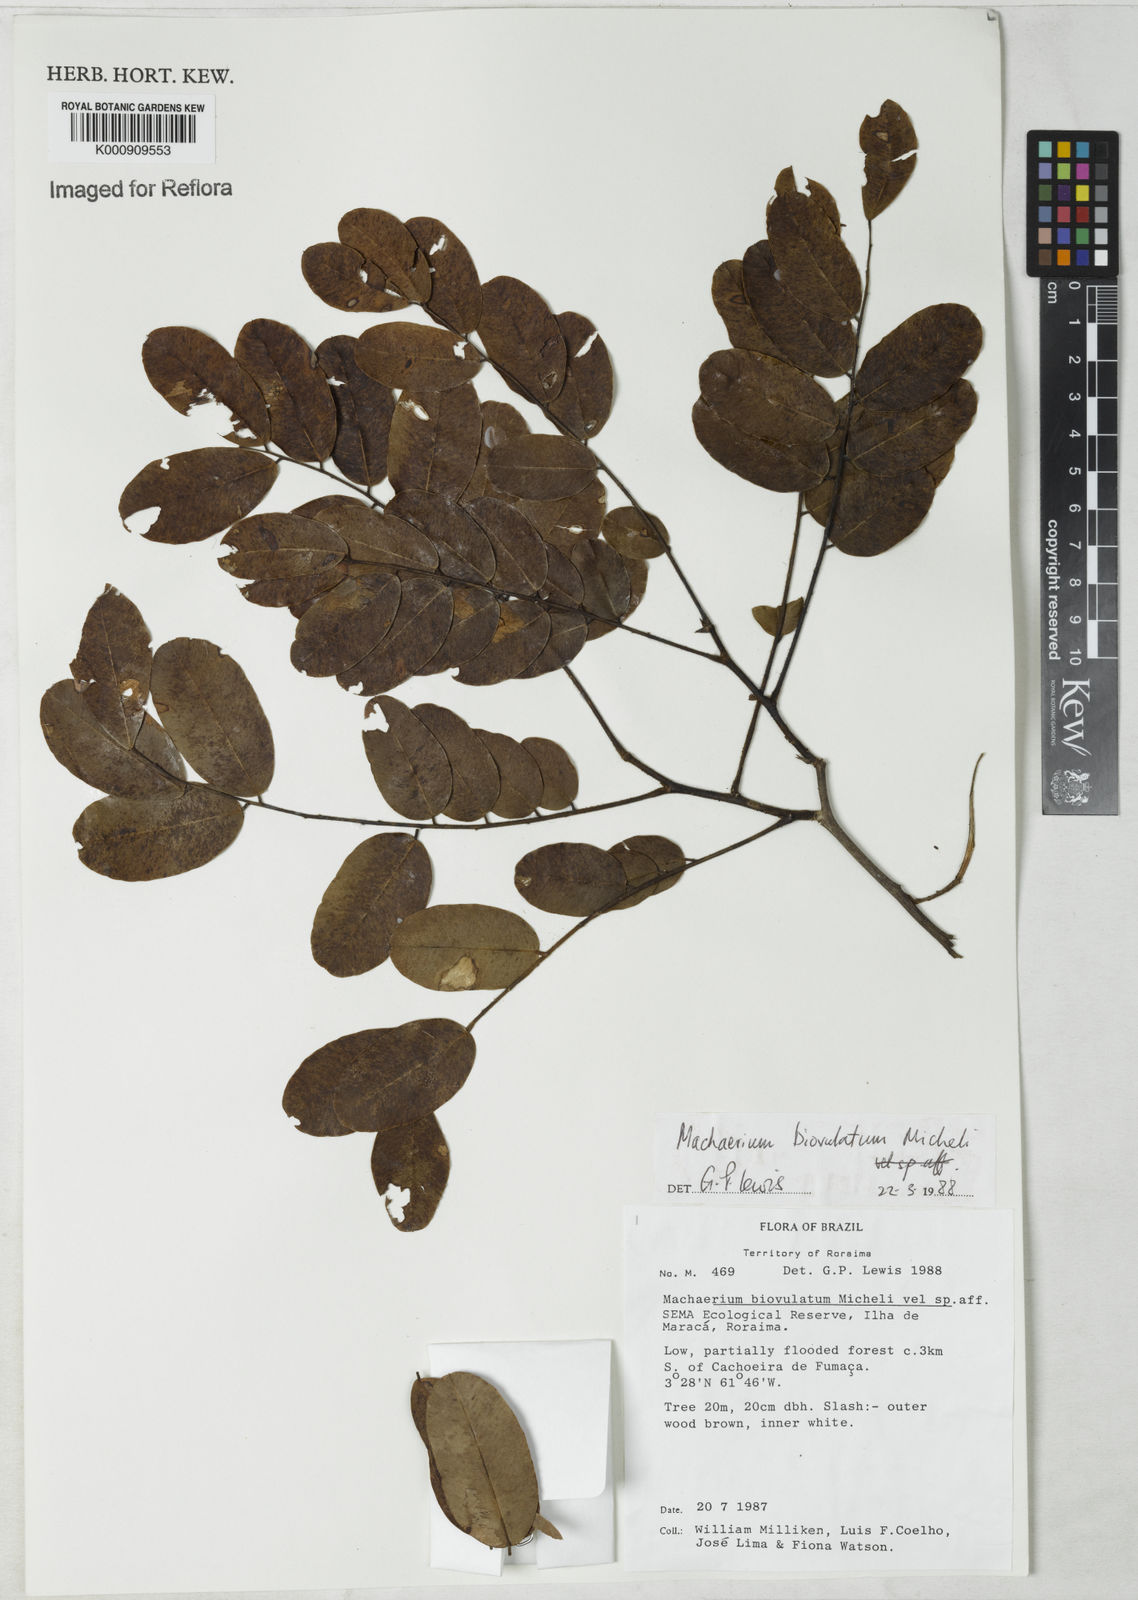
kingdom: Plantae
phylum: Tracheophyta
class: Magnoliopsida
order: Fabales
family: Fabaceae
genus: Machaerium
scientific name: Machaerium biovulatum
